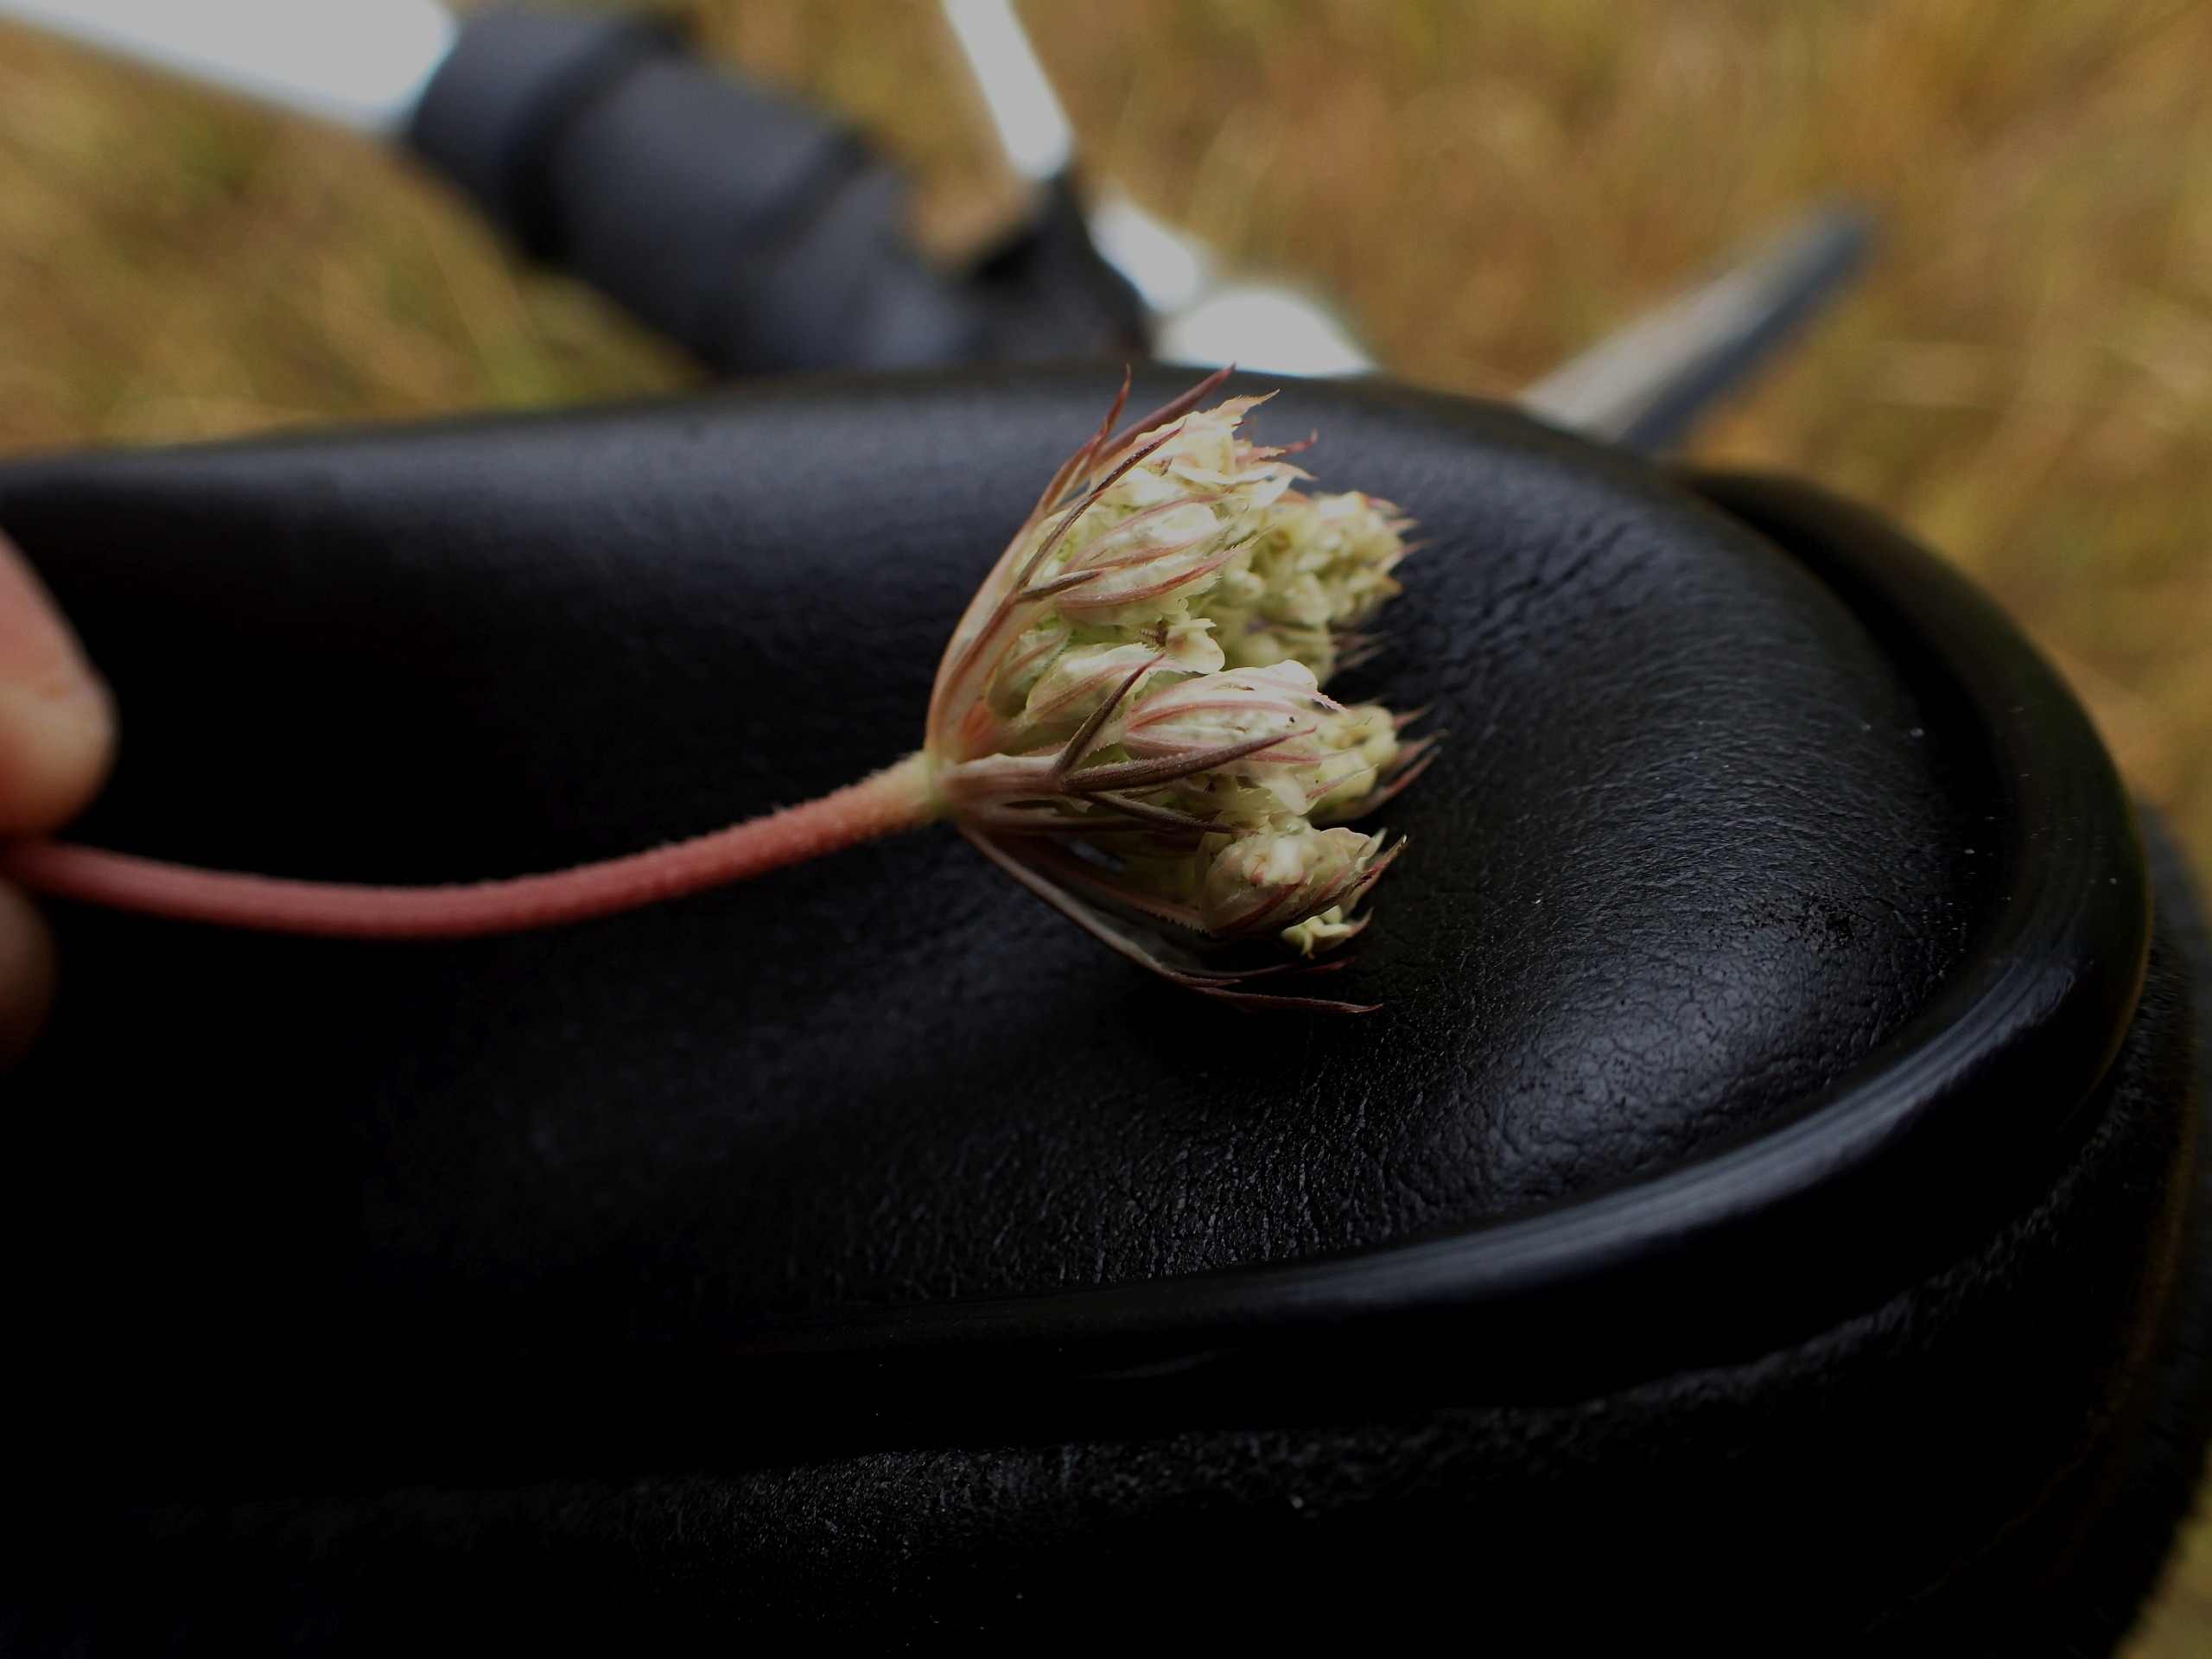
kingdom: Plantae
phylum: Tracheophyta
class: Magnoliopsida
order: Apiales
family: Apiaceae
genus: Daucus
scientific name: Daucus carota
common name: Gulerod
